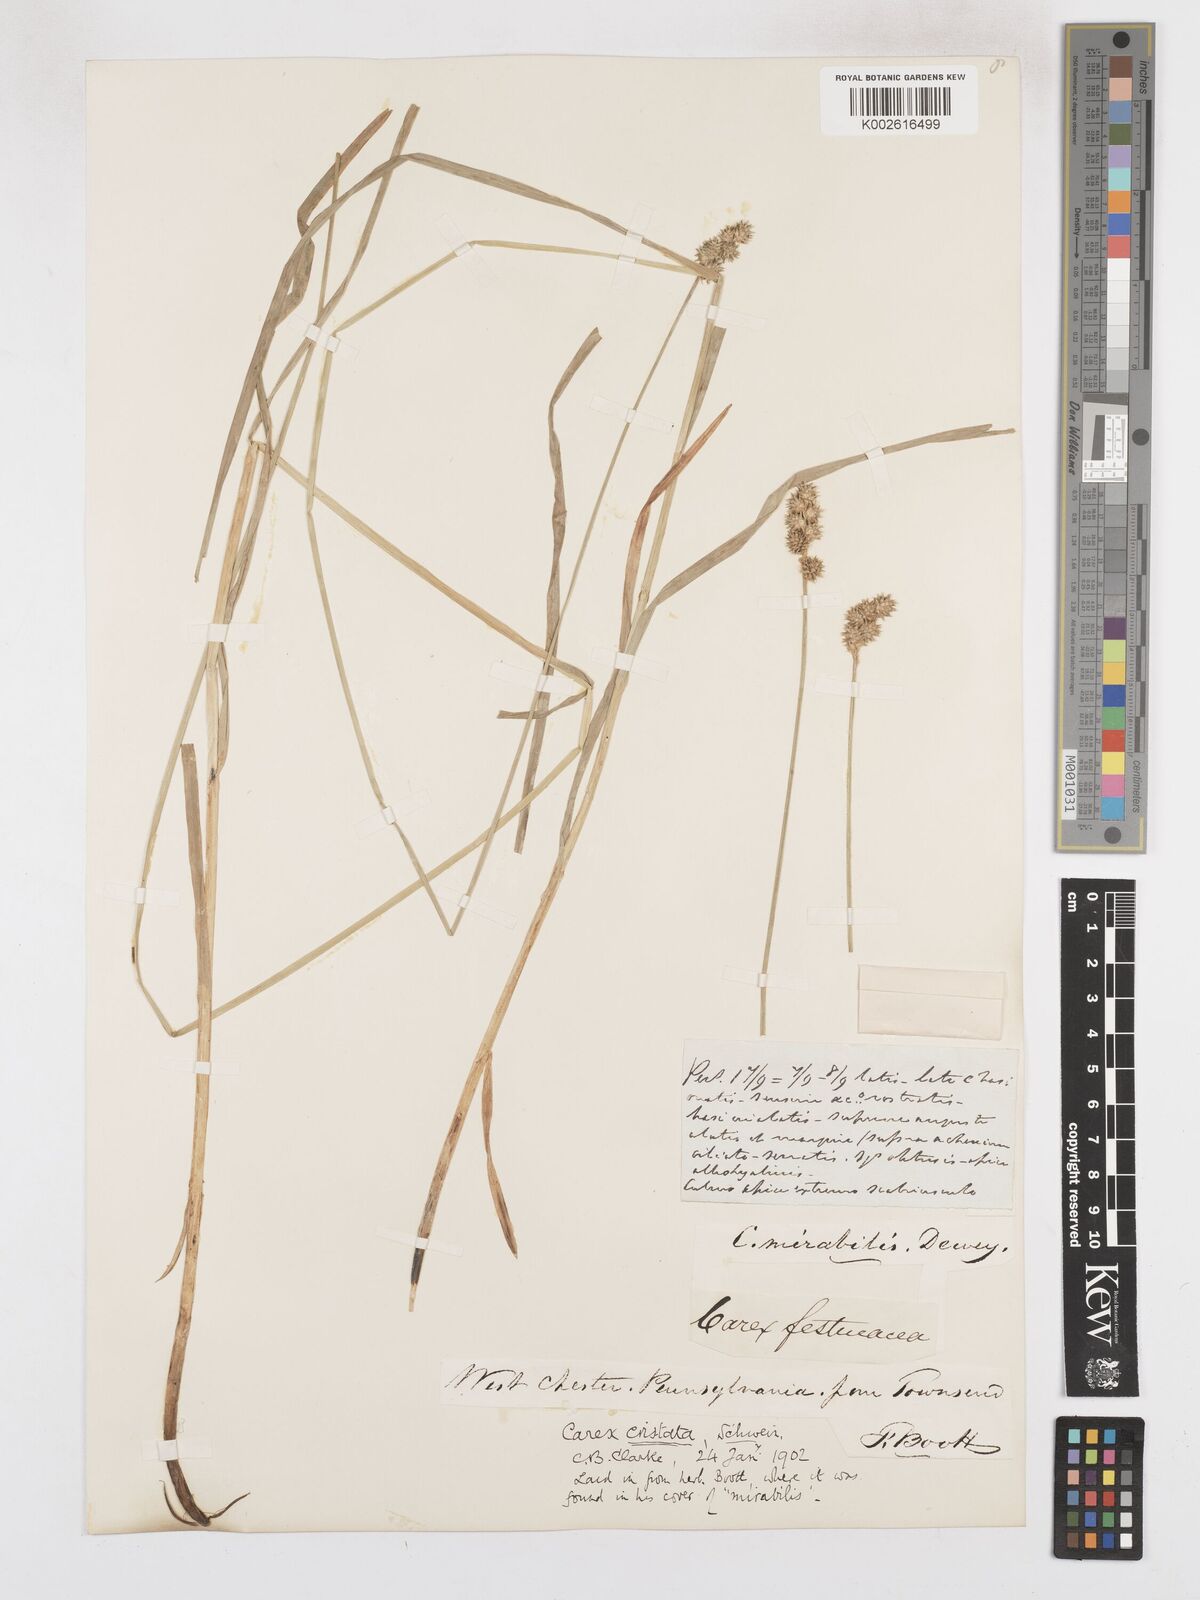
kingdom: Plantae
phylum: Tracheophyta
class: Liliopsida
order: Poales
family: Cyperaceae
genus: Carex
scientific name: Carex cristatella
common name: Crested oval sedge
